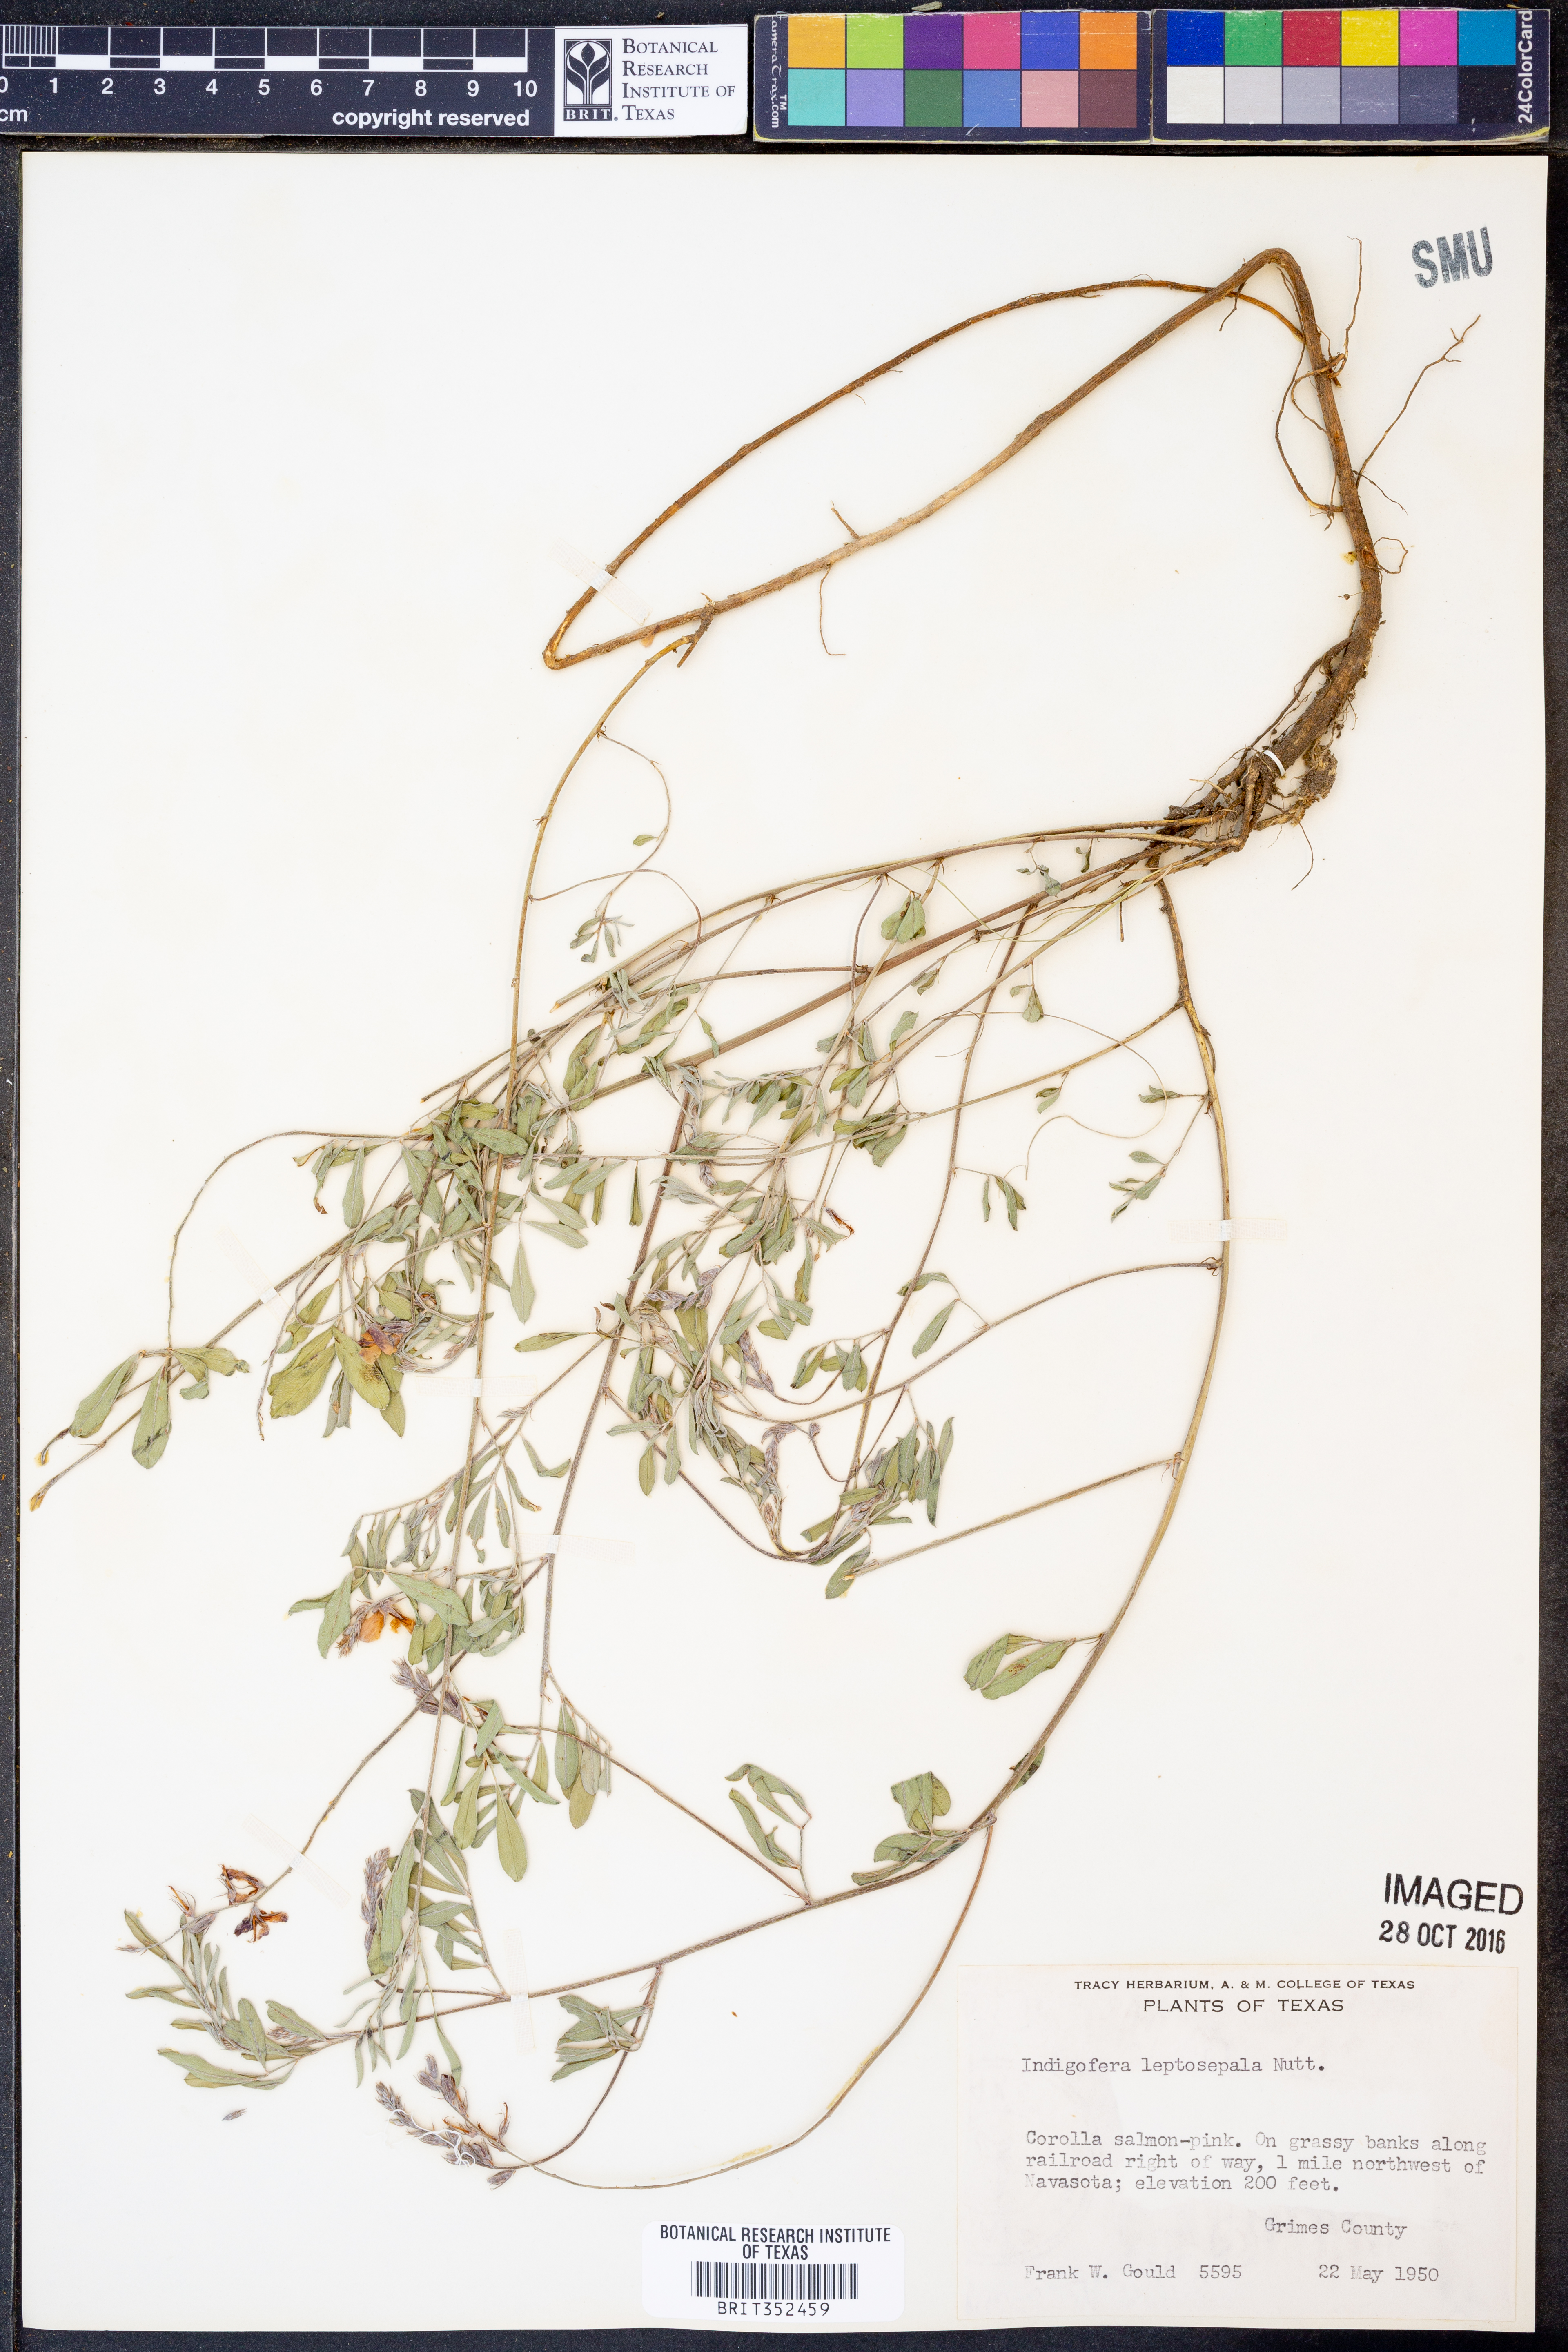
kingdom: Plantae
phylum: Tracheophyta
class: Magnoliopsida
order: Fabales
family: Fabaceae
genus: Indigofera
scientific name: Indigofera argutidens
